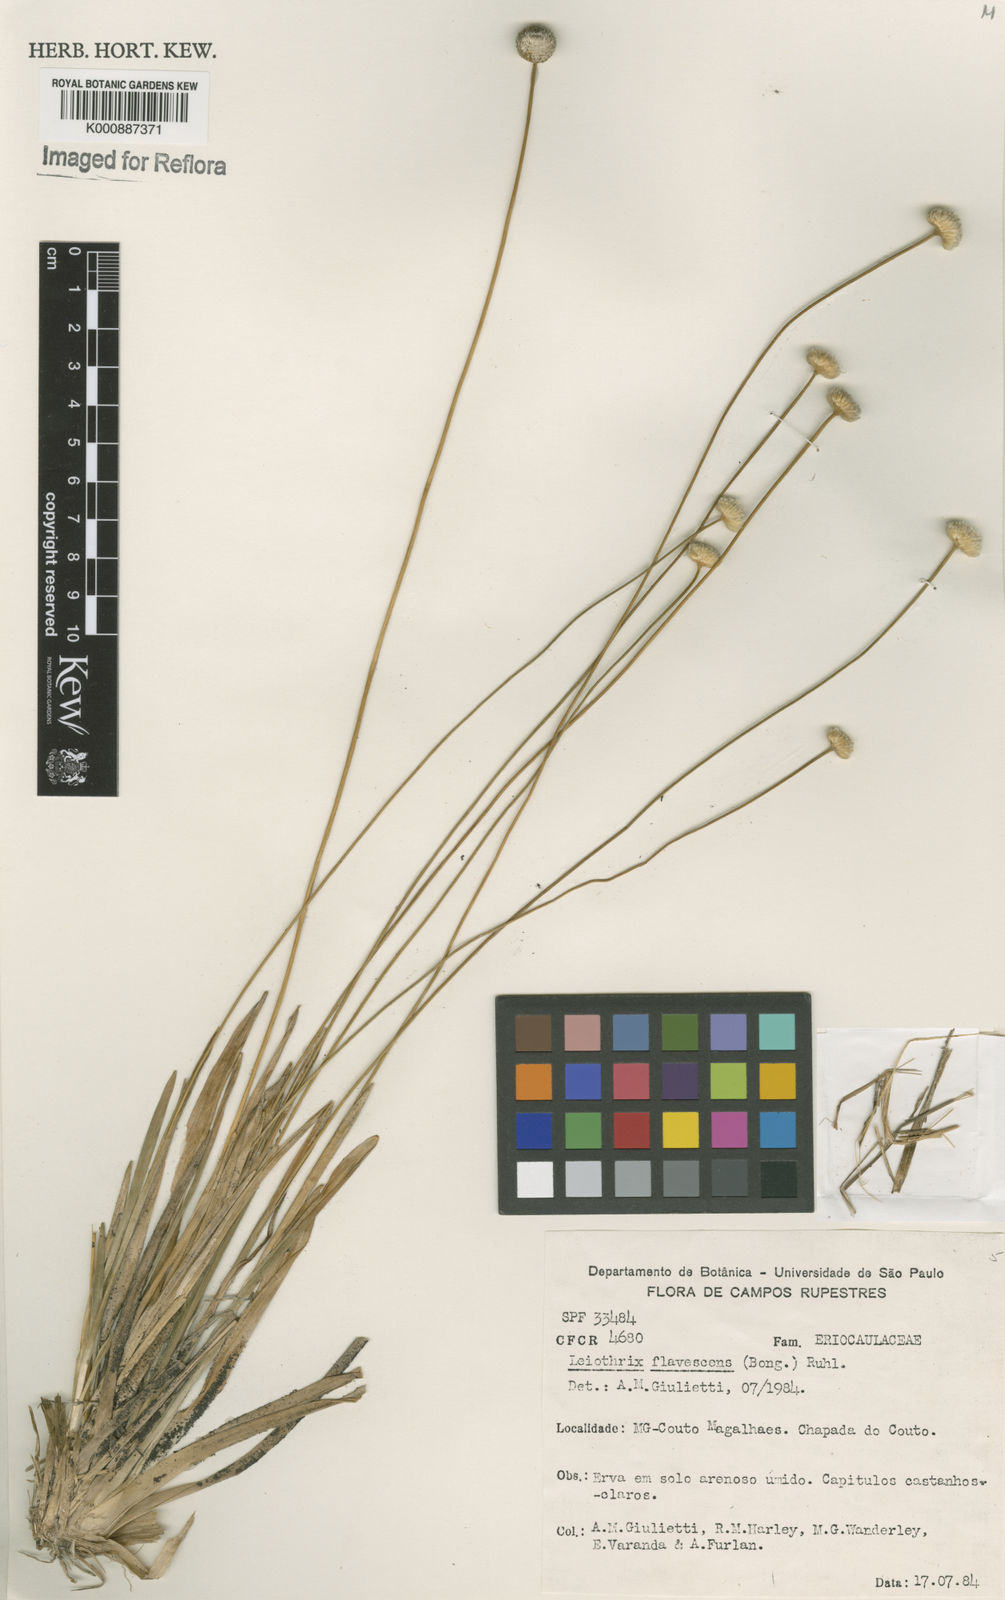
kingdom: Plantae
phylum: Tracheophyta
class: Liliopsida
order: Poales
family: Eriocaulaceae
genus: Leiothrix
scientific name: Leiothrix flavescens
